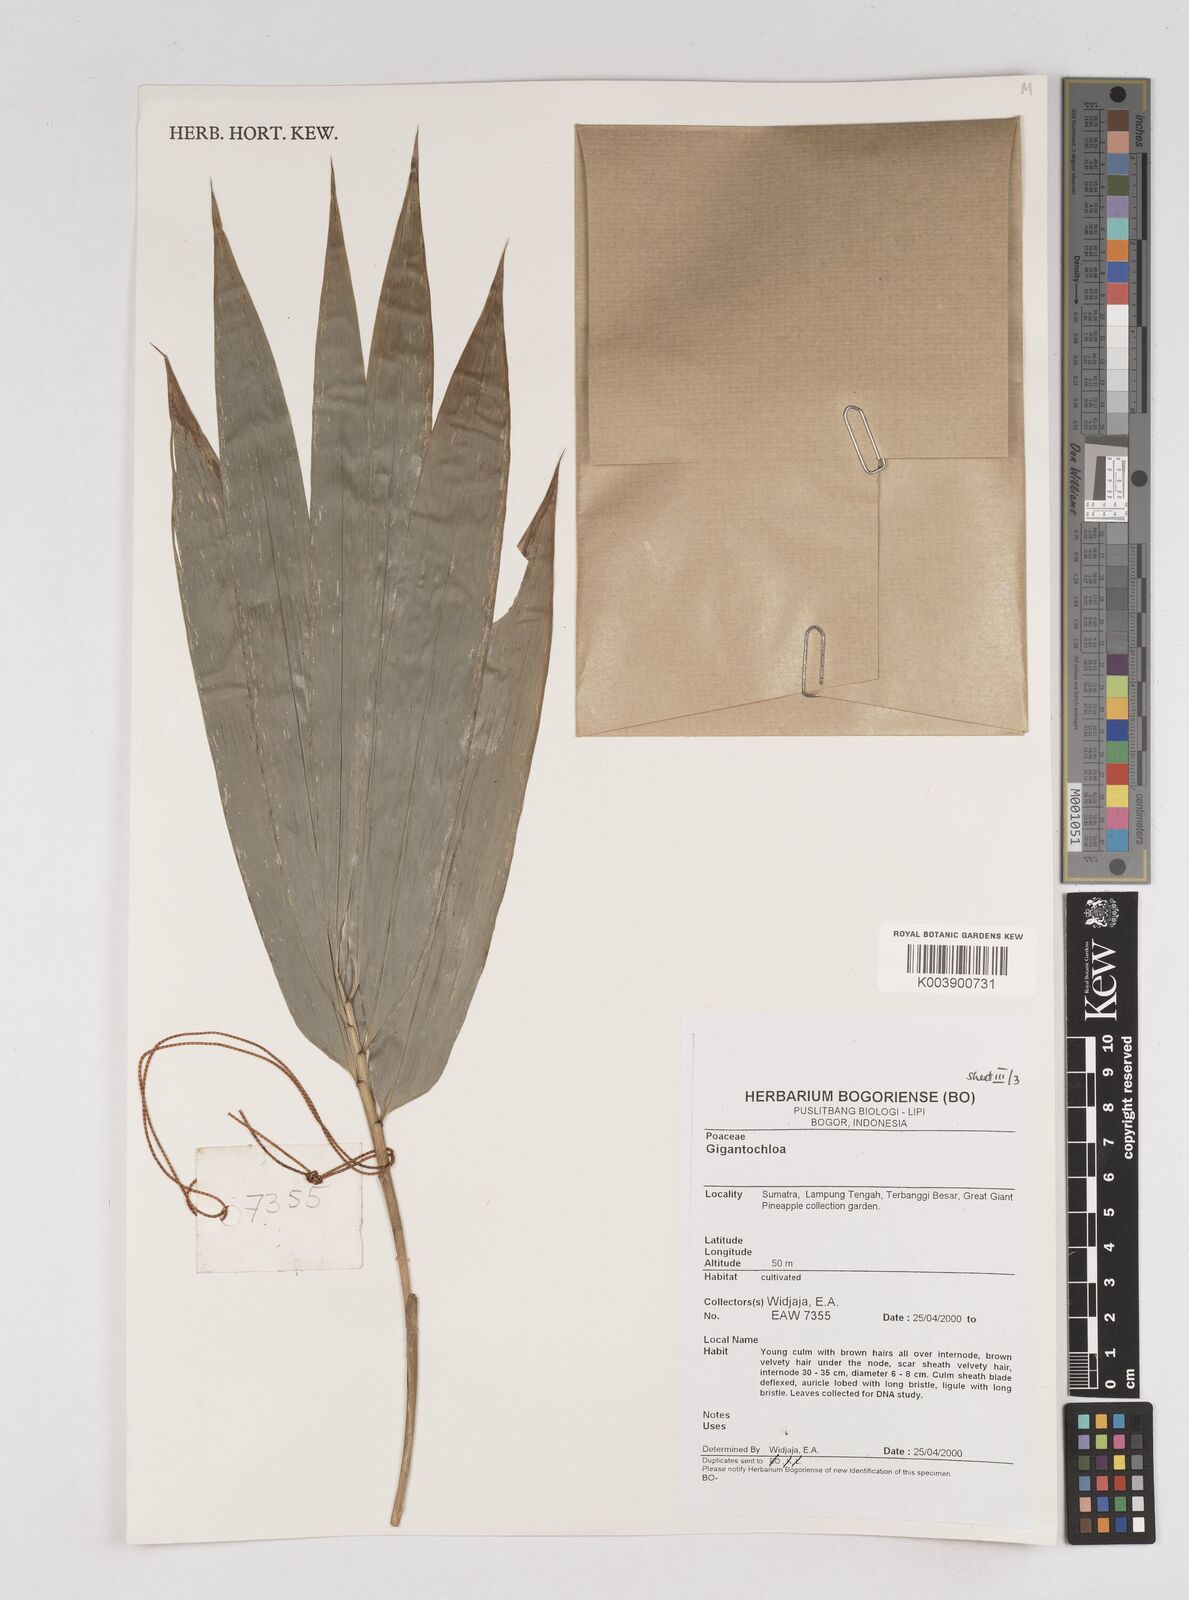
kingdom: Plantae
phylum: Tracheophyta
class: Liliopsida
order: Poales
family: Poaceae
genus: Gigantochloa
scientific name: Gigantochloa
